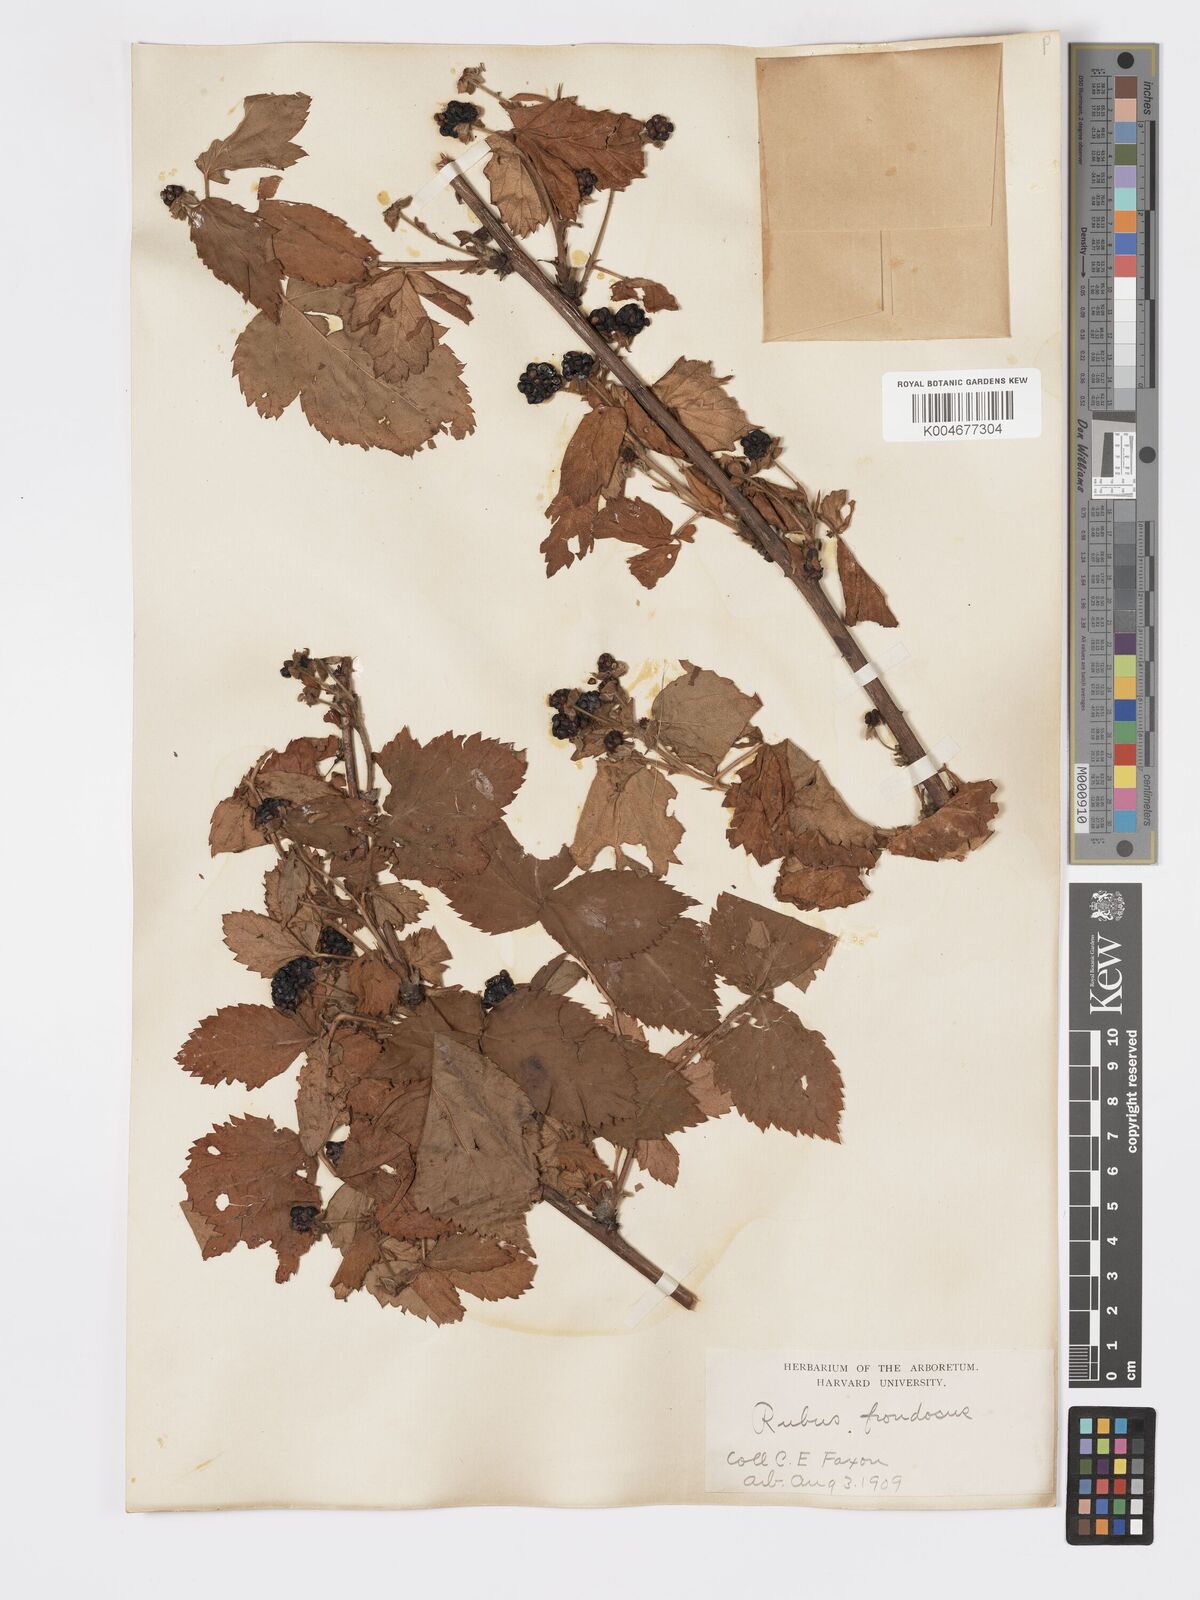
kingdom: Plantae
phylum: Tracheophyta
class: Magnoliopsida
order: Rosales
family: Rosaceae
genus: Rubus
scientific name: Rubus frondosus
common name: Yankee blackberry
